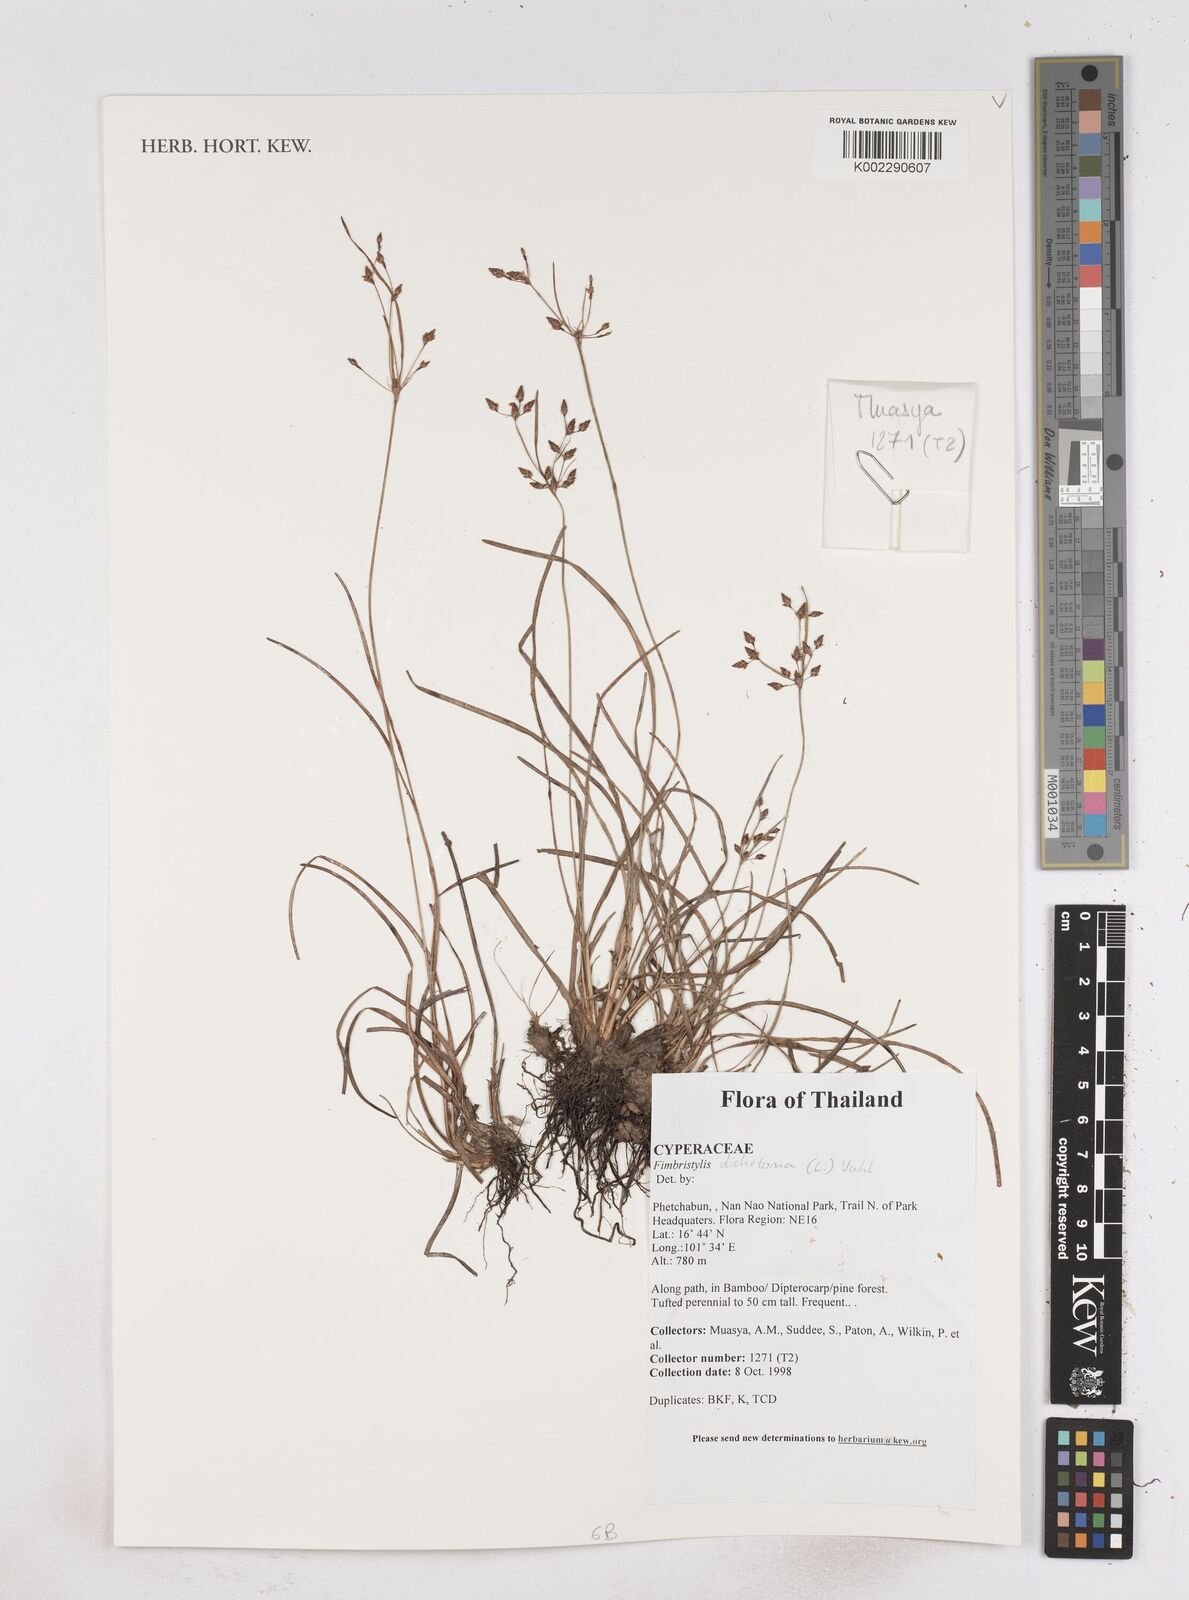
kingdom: Plantae
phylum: Tracheophyta
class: Liliopsida
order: Poales
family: Cyperaceae
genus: Fimbristylis
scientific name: Fimbristylis dichotoma
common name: Forked fimbry
